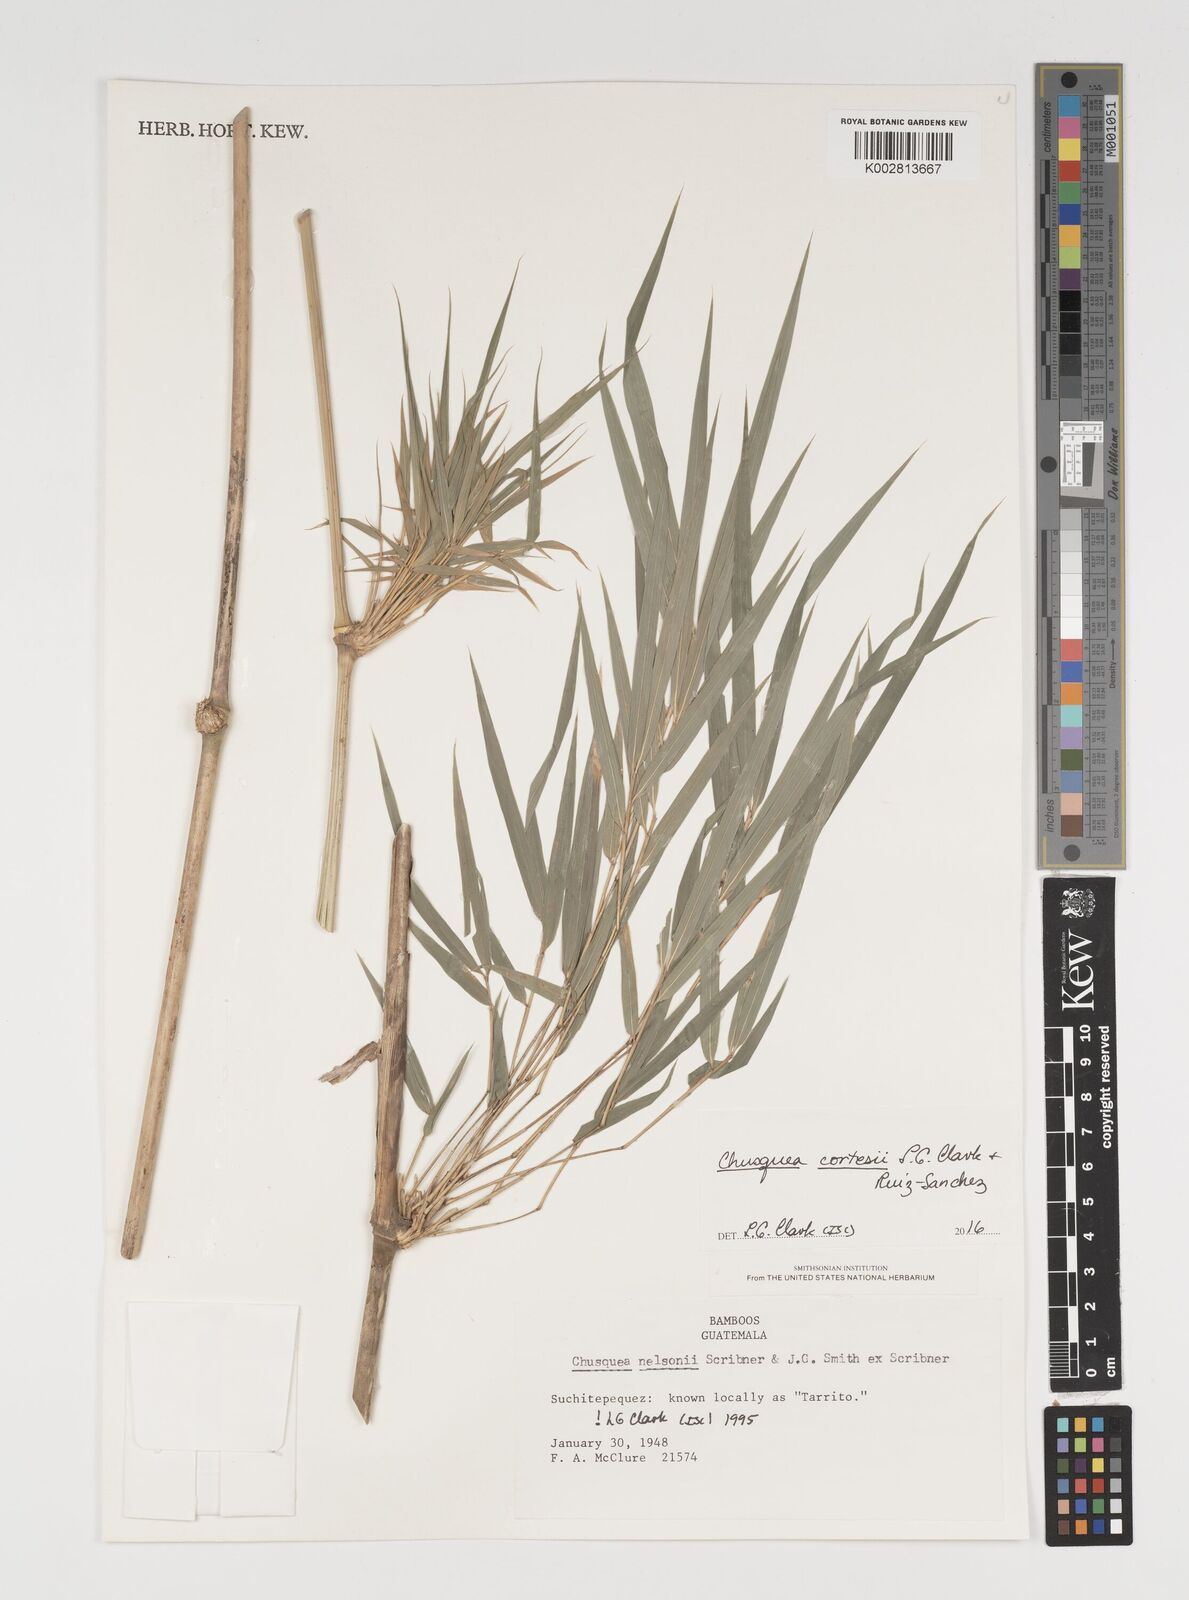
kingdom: Plantae
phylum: Tracheophyta
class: Liliopsida
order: Poales
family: Poaceae
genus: Chusquea
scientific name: Chusquea cortesii
